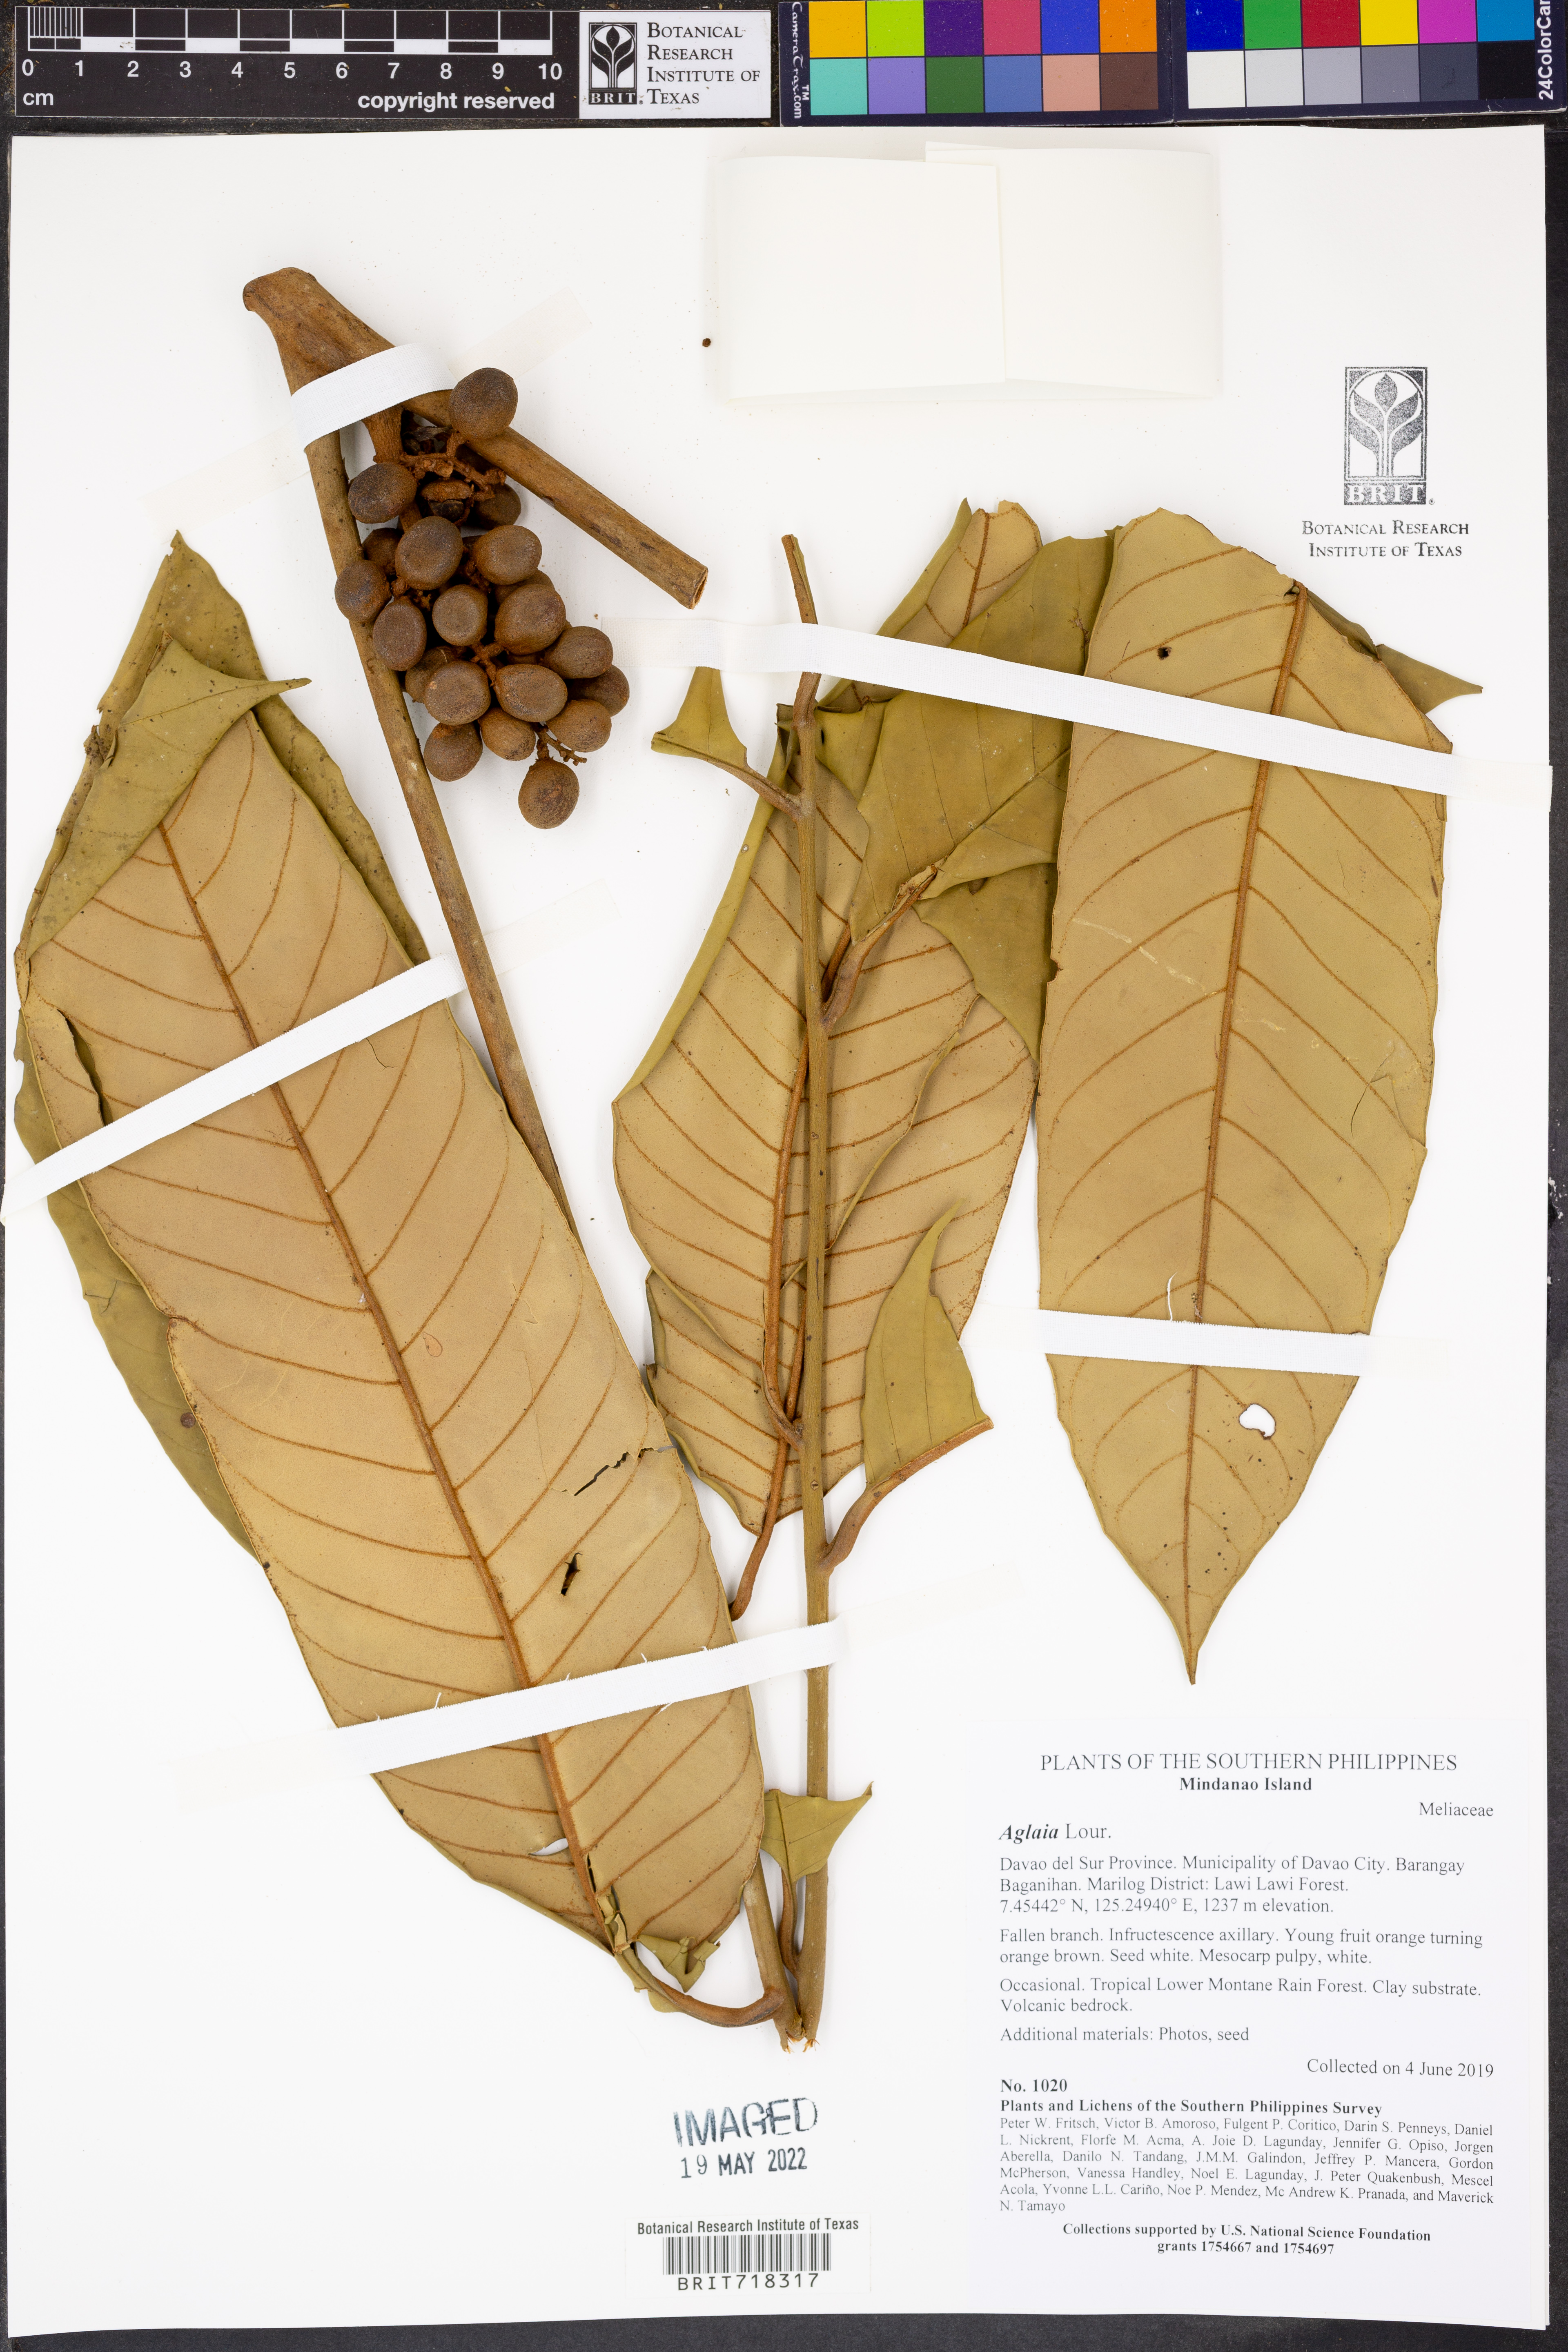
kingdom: Plantae
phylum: Tracheophyta
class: Magnoliopsida
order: Sapindales
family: Meliaceae
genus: Aglaia
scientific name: Aglaia
